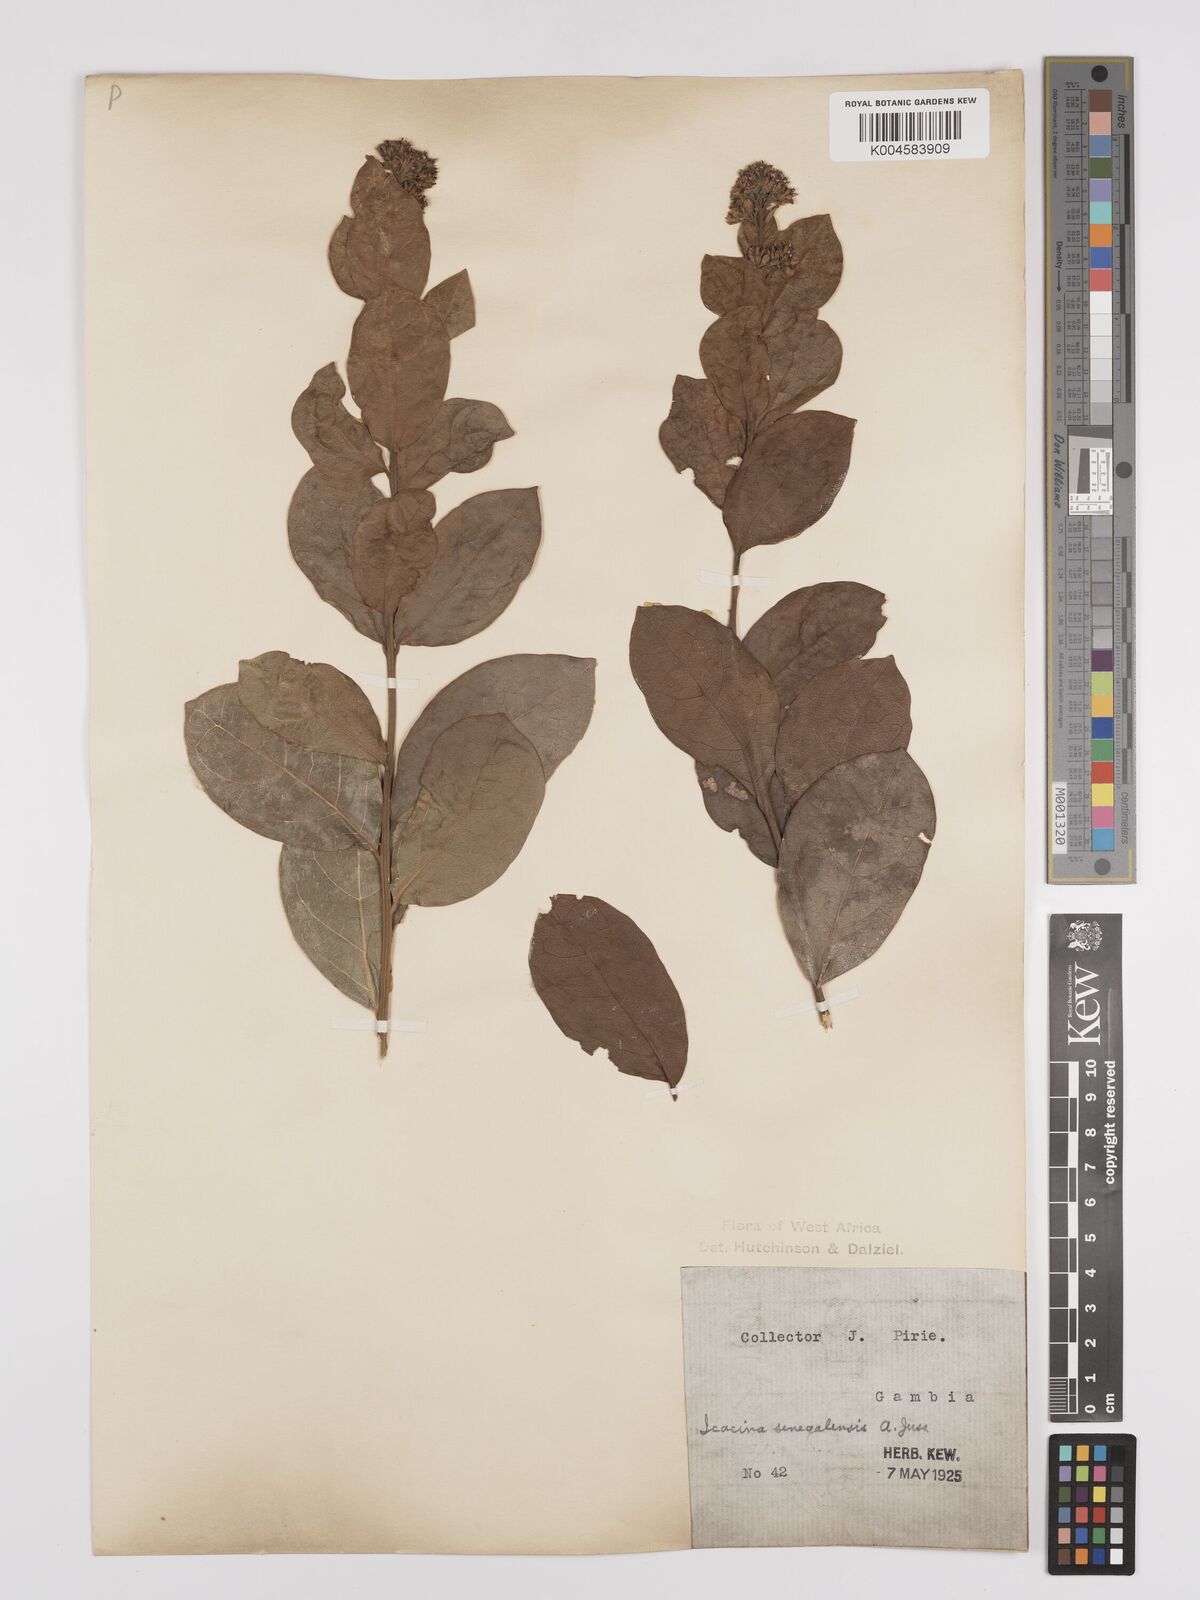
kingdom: Plantae
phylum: Tracheophyta
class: Magnoliopsida
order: Icacinales
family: Icacinaceae
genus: Icacina
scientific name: Icacina oliviformis
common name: False yam
